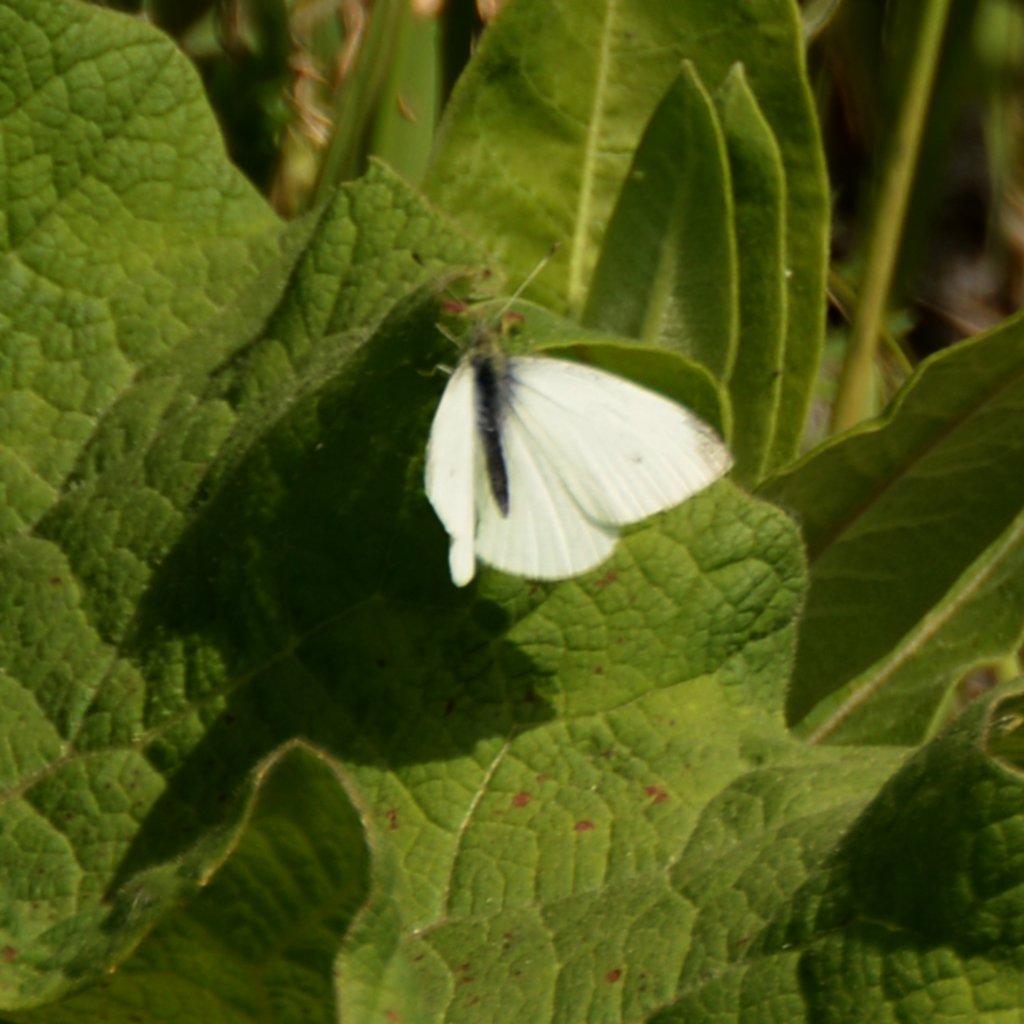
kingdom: Animalia
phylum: Arthropoda
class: Insecta
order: Lepidoptera
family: Pieridae
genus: Pieris
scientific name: Pieris rapae
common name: Cabbage White
